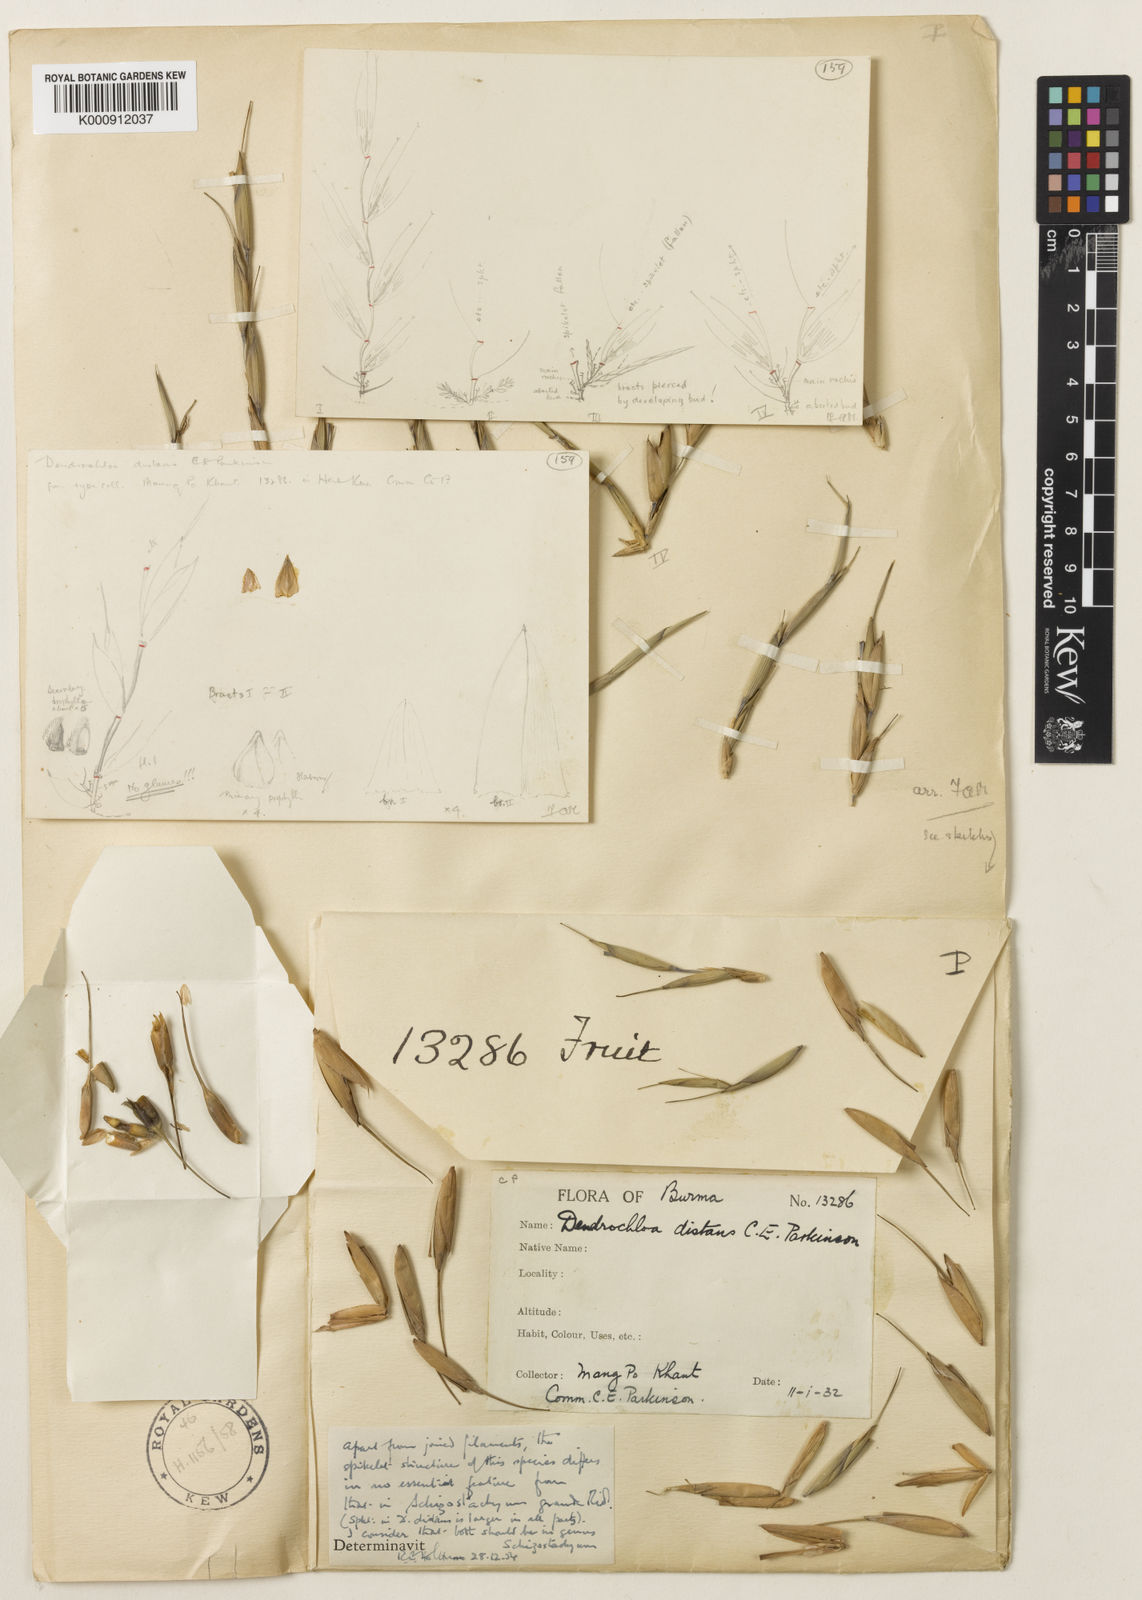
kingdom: Plantae
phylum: Tracheophyta
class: Liliopsida
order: Poales
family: Poaceae
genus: Schizostachyum
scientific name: Schizostachyum distans
